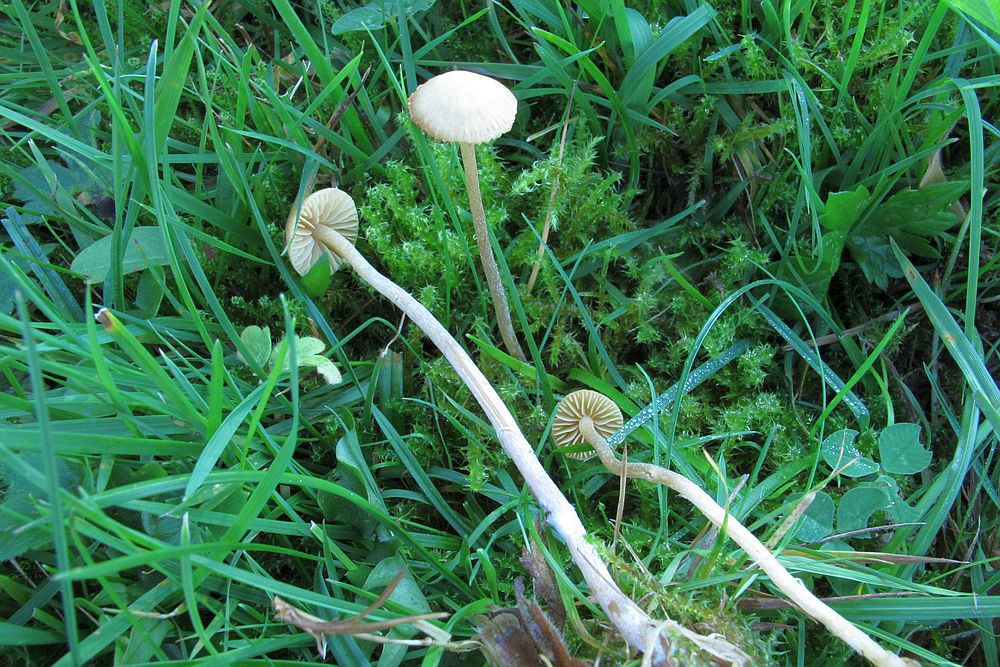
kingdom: Fungi
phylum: Basidiomycota
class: Agaricomycetes
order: Agaricales
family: Hymenogastraceae
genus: Galerina
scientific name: Galerina mniophila
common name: olivengul hjelmhat
